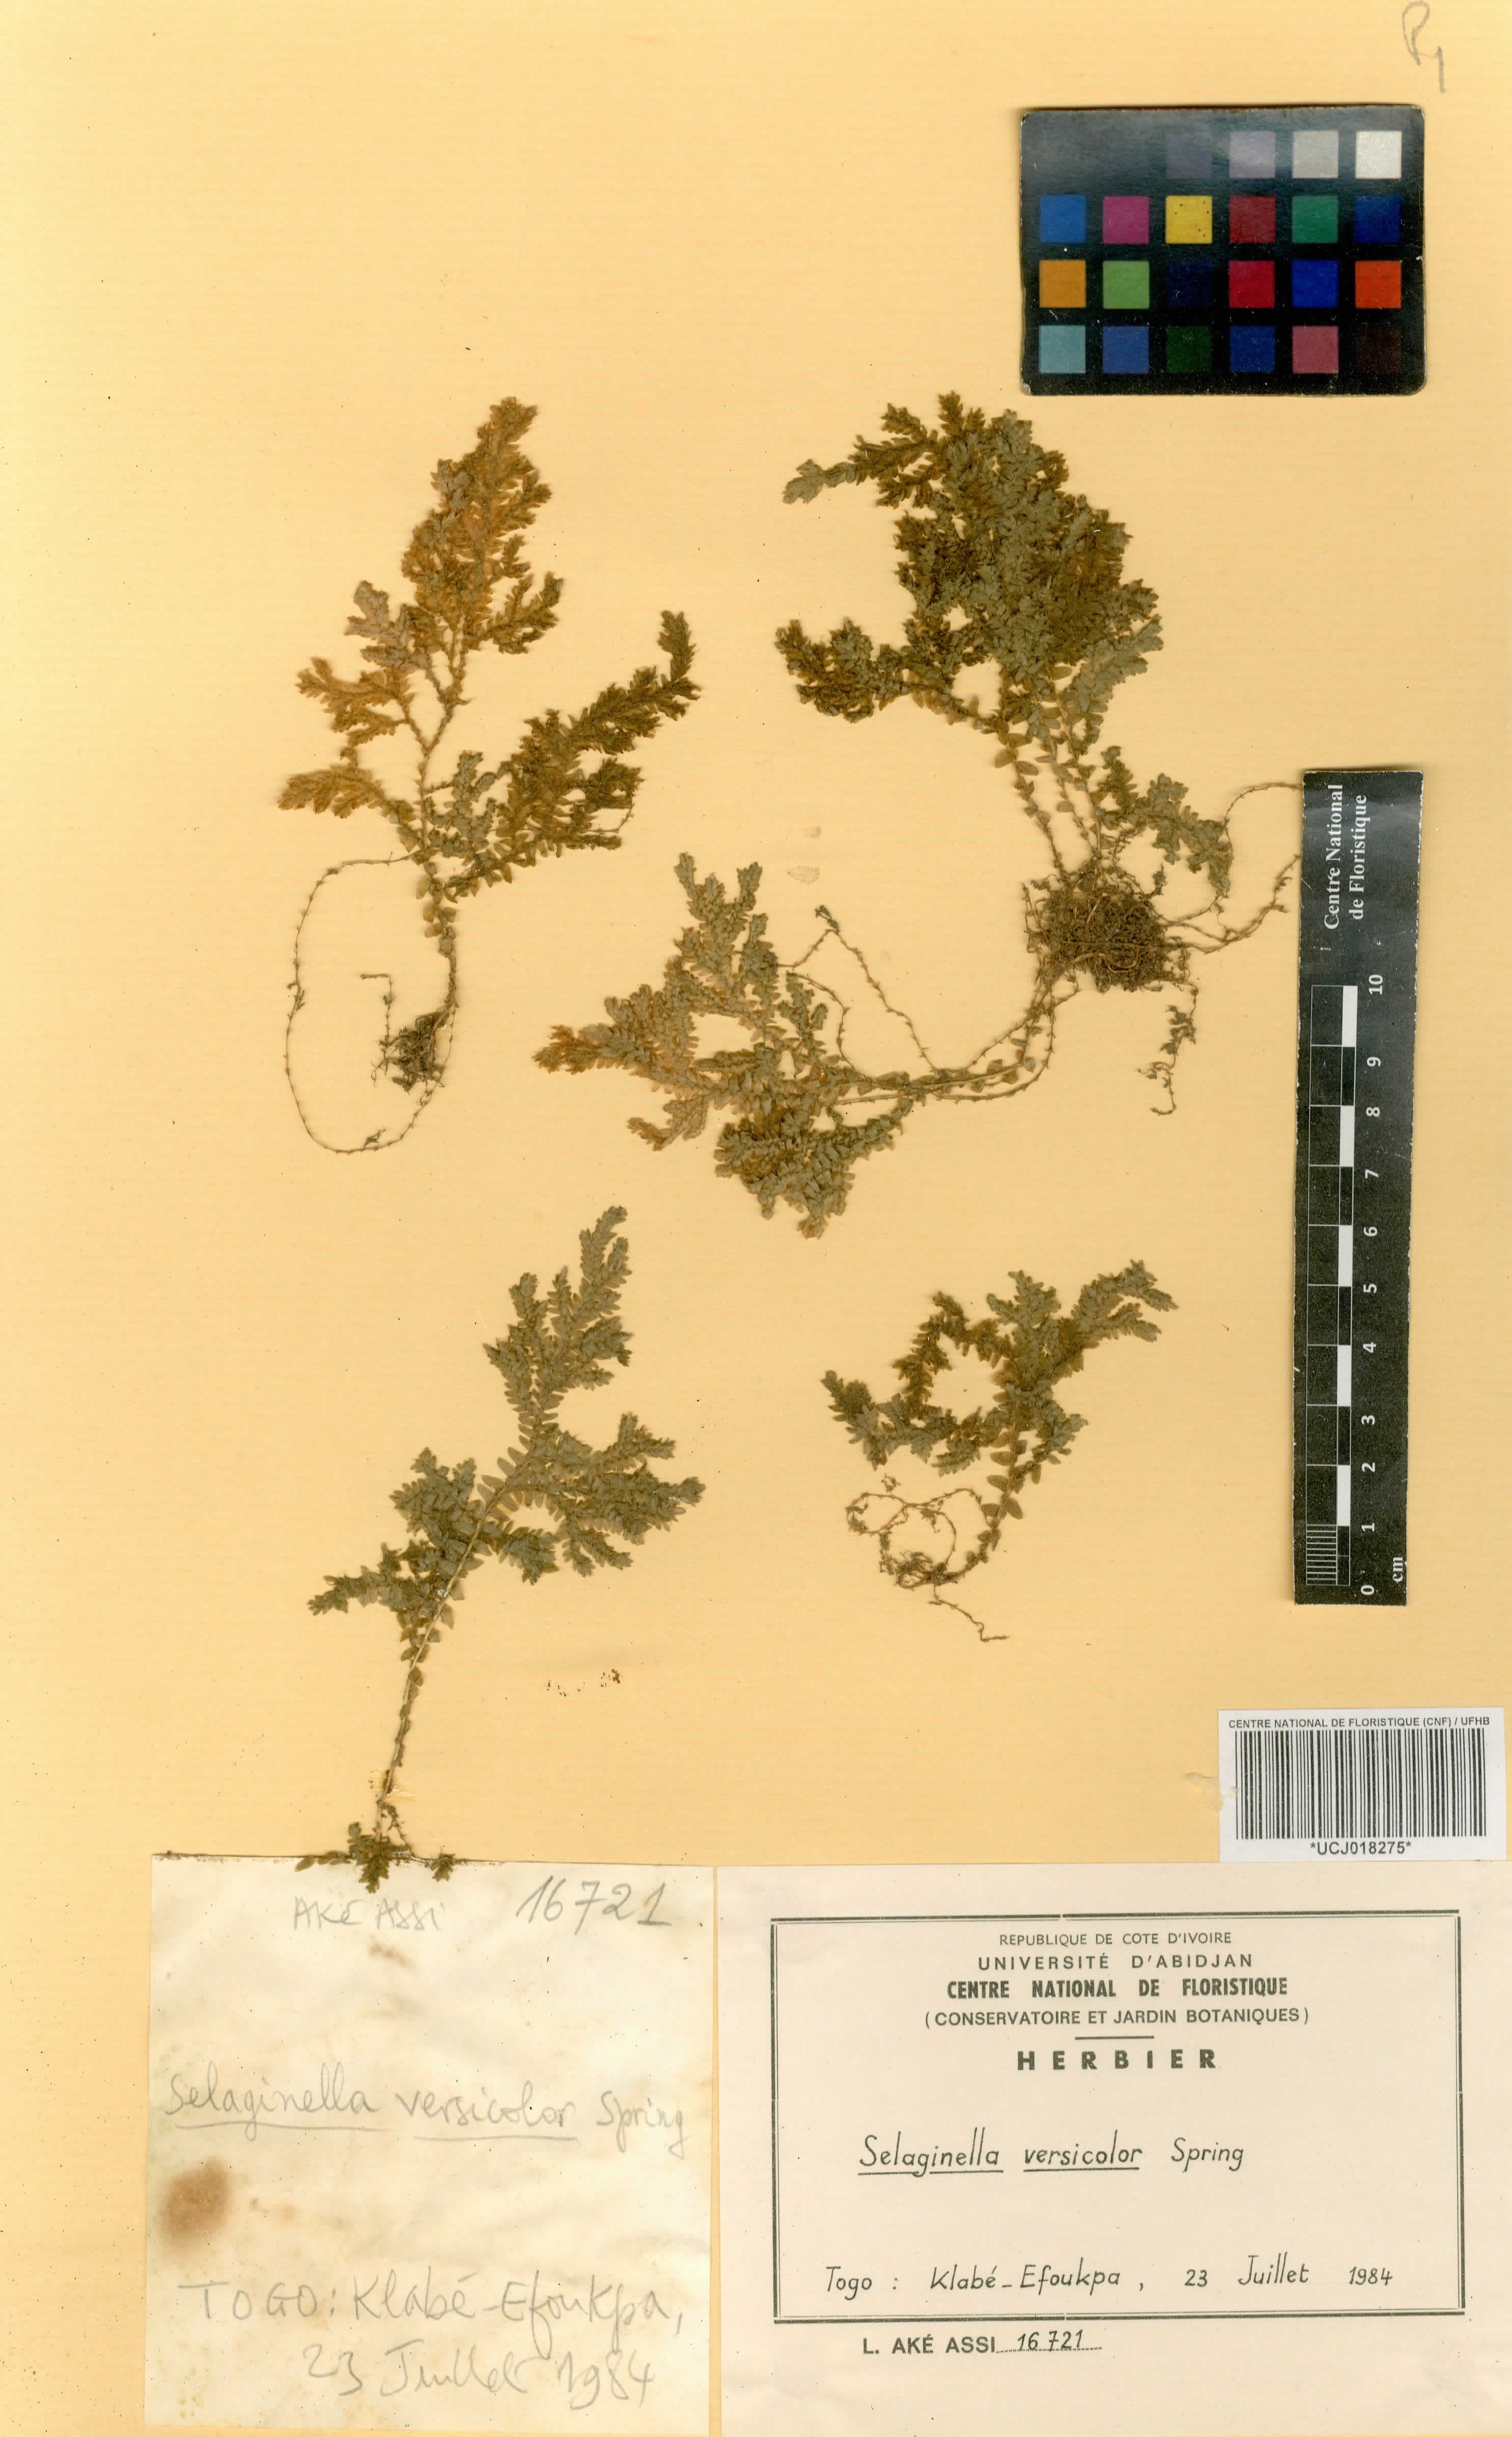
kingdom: Plantae
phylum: Tracheophyta
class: Lycopodiopsida
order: Selaginellales
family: Selaginellaceae
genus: Selaginella
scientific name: Selaginella versicolor
